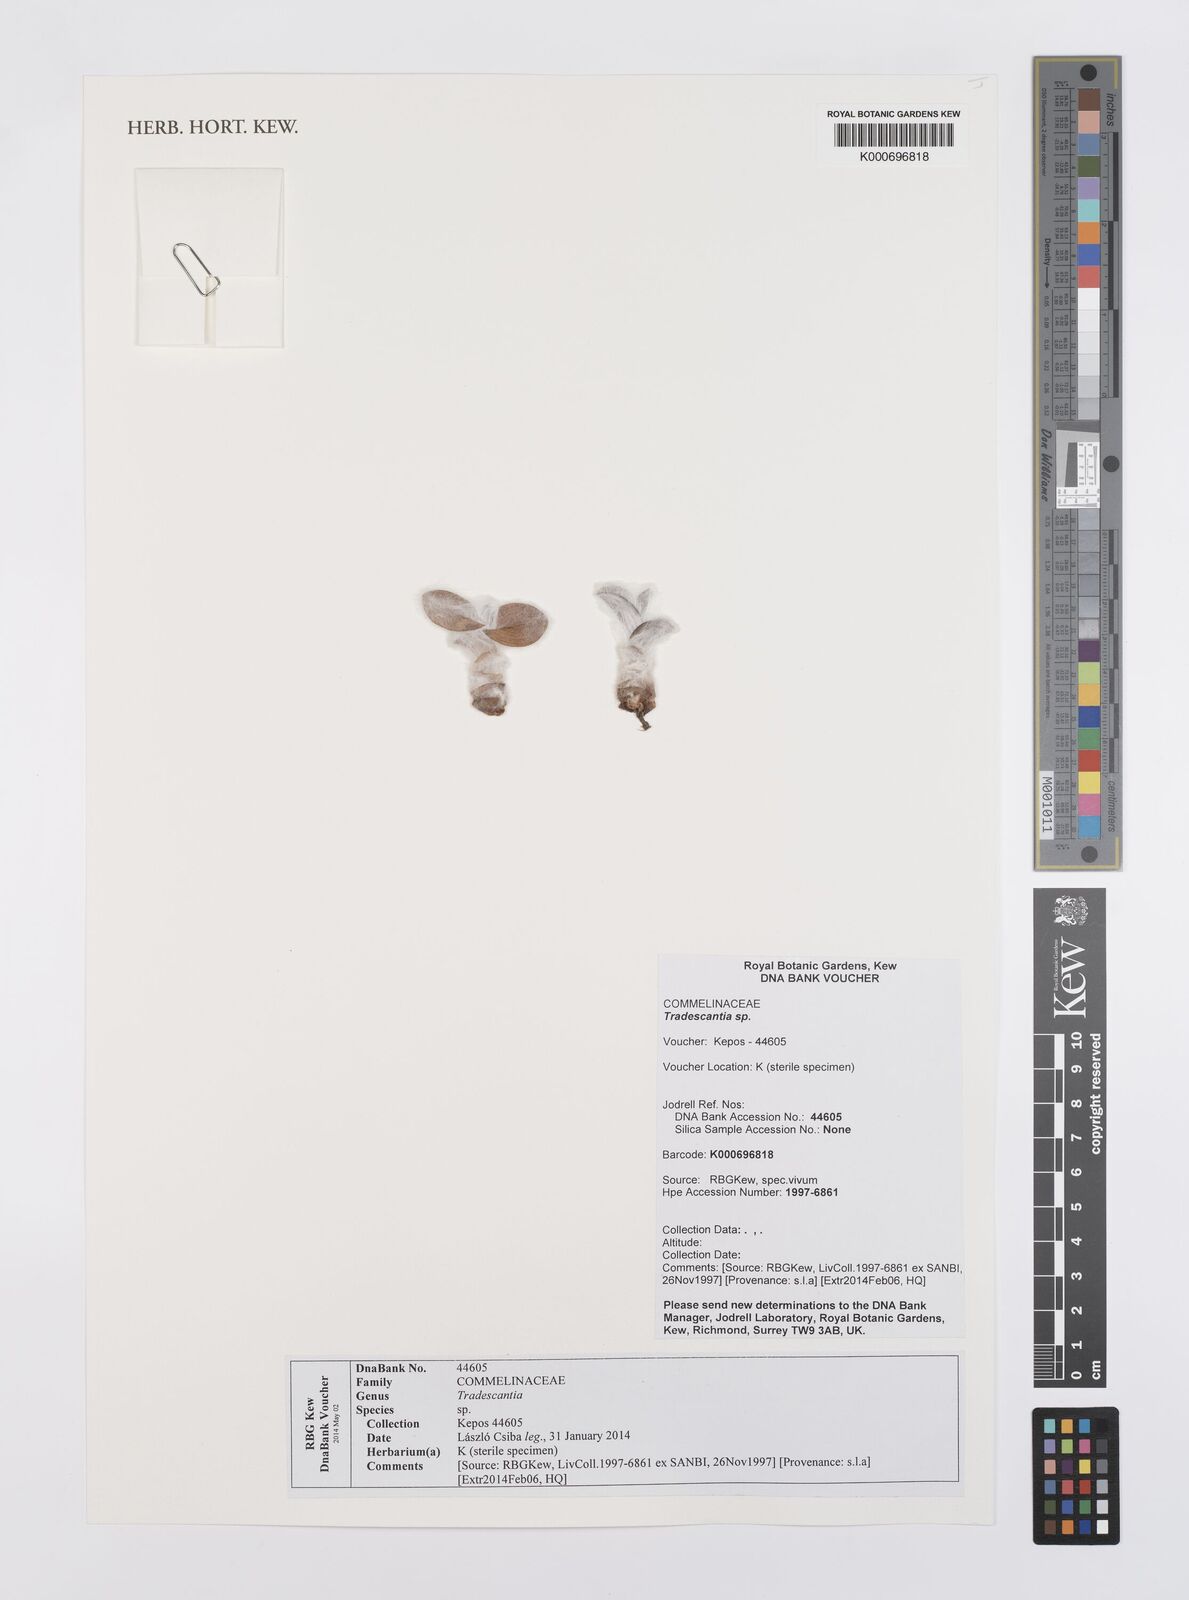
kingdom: Plantae
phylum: Tracheophyta
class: Liliopsida
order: Commelinales
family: Commelinaceae
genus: Tradescantia
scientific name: Tradescantia
